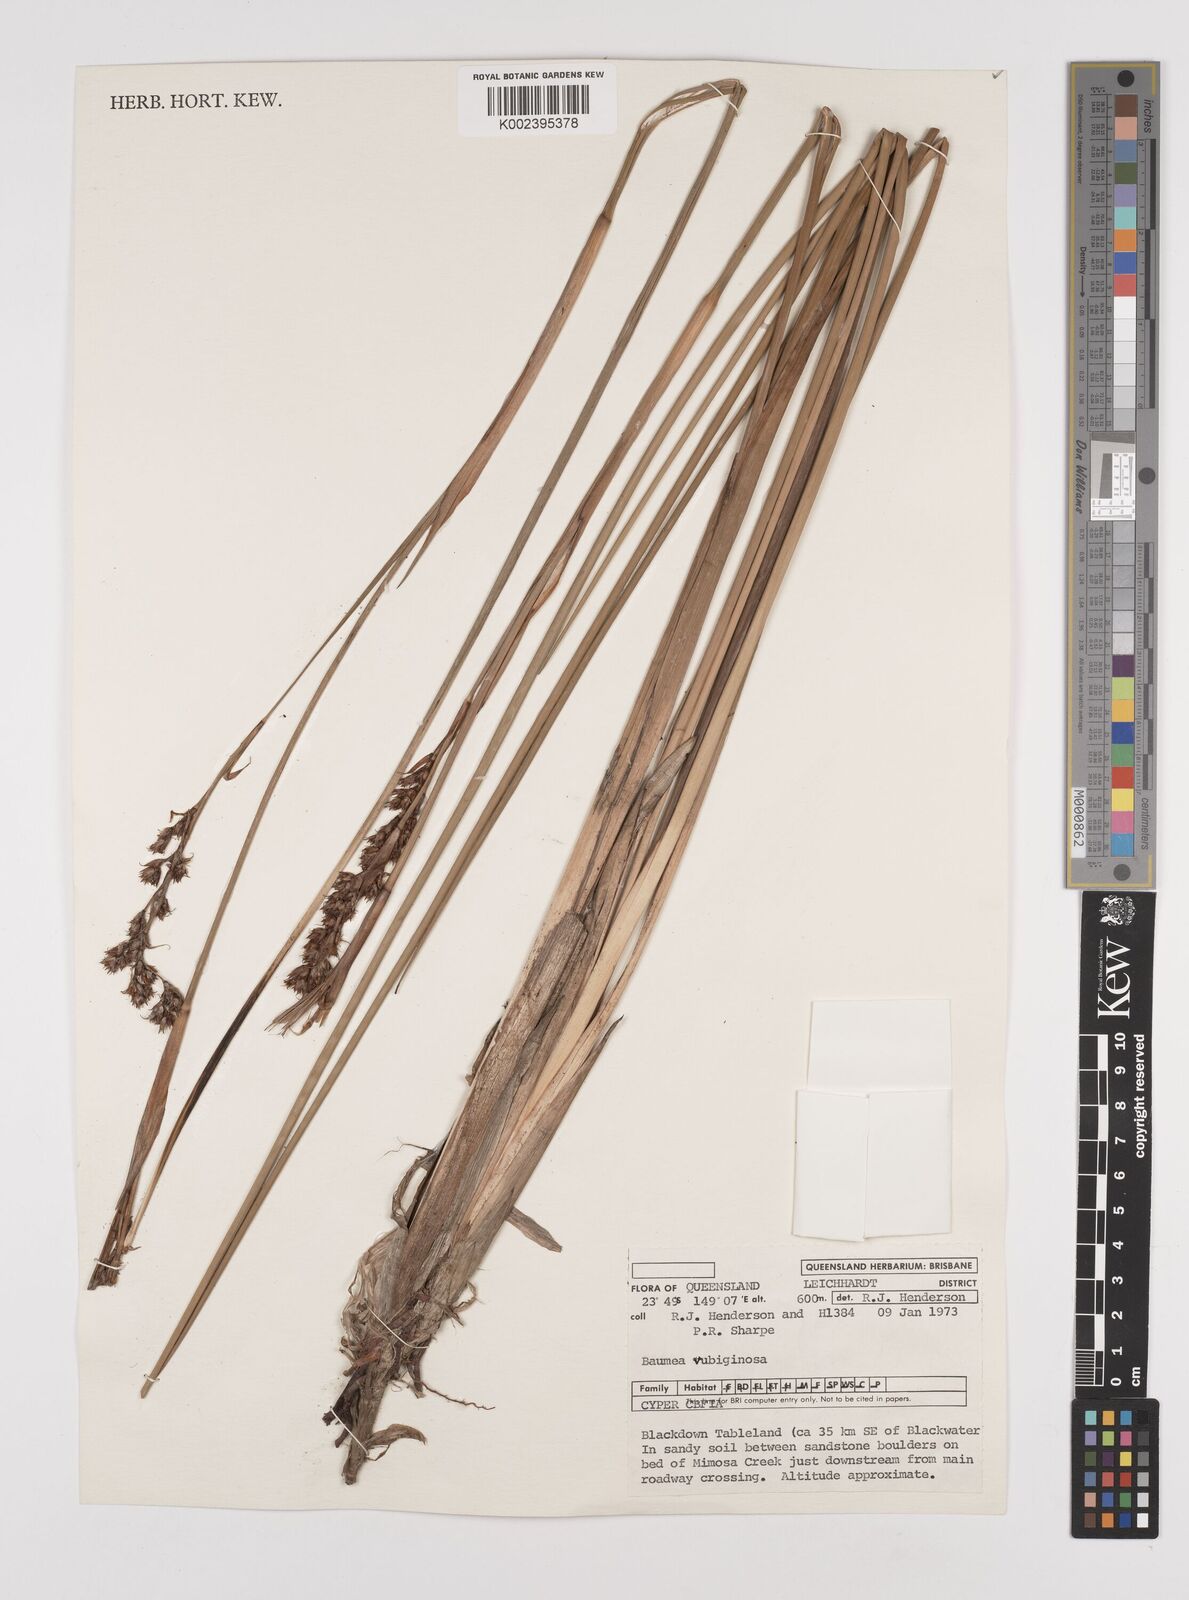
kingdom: Plantae
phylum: Tracheophyta
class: Liliopsida
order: Poales
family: Cyperaceae
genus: Machaerina
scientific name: Machaerina rubiginosa
